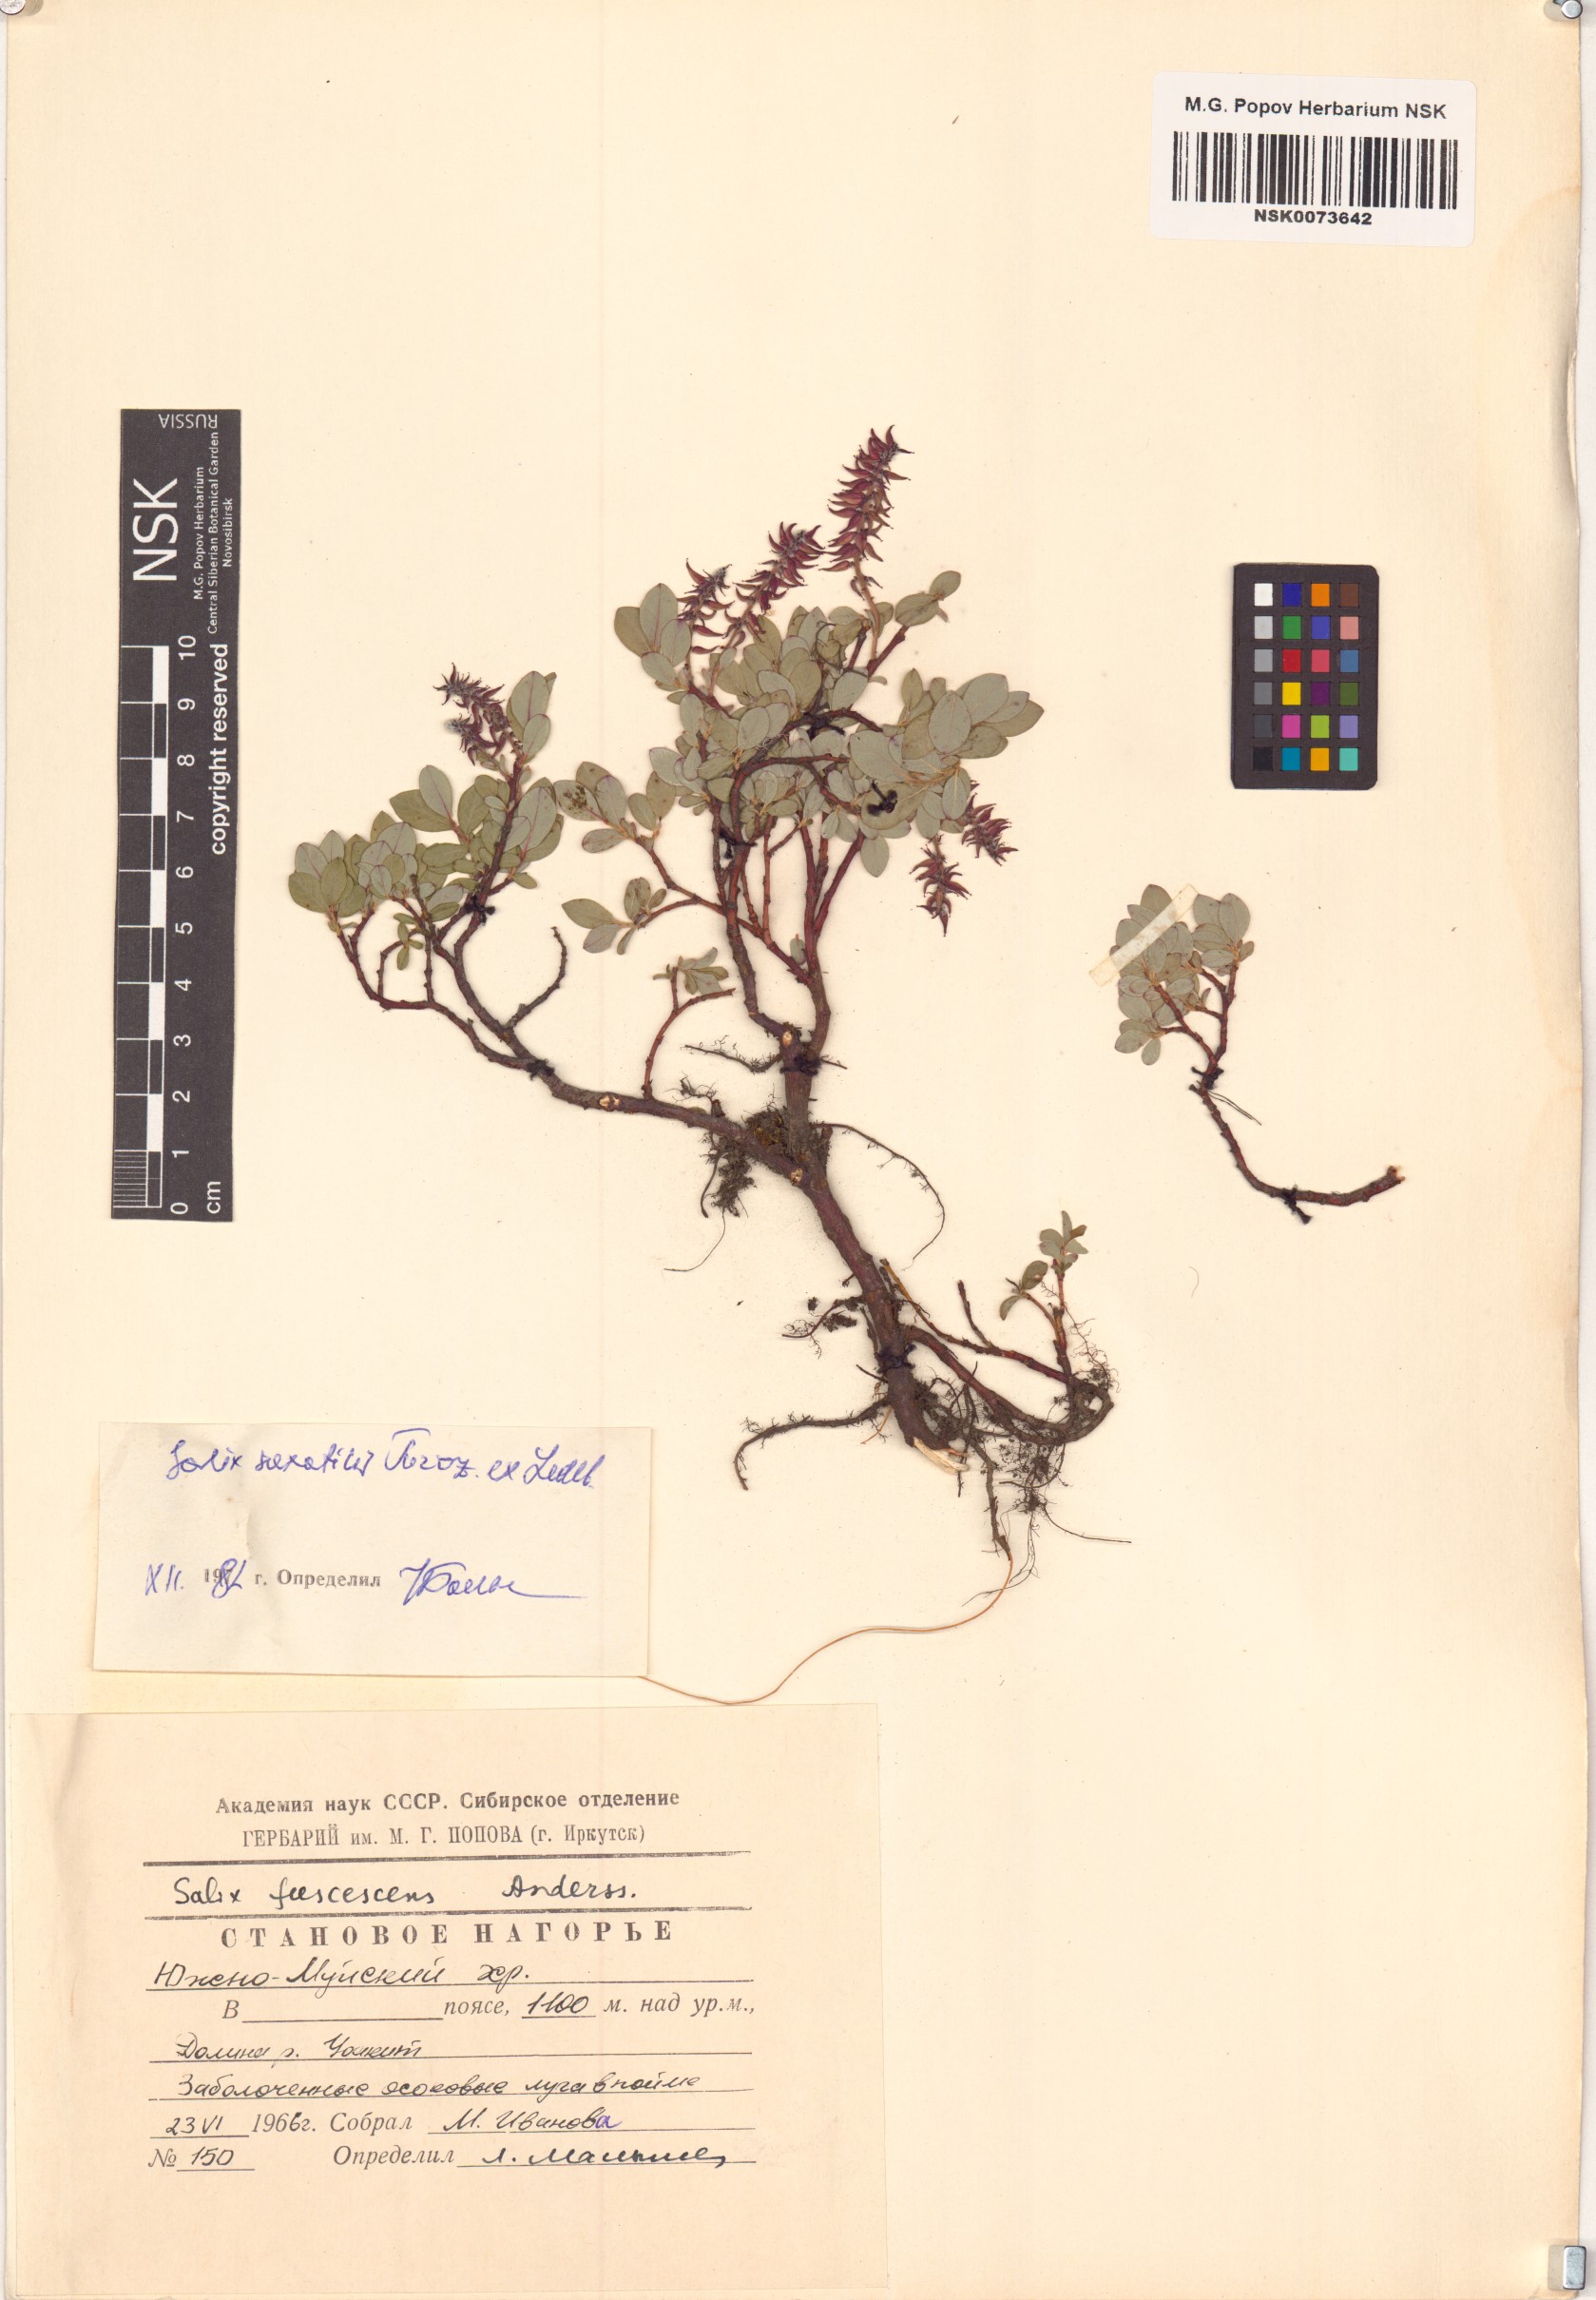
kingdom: Plantae
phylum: Tracheophyta
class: Magnoliopsida
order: Malpighiales
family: Salicaceae
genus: Salix
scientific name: Salix saxatilis
